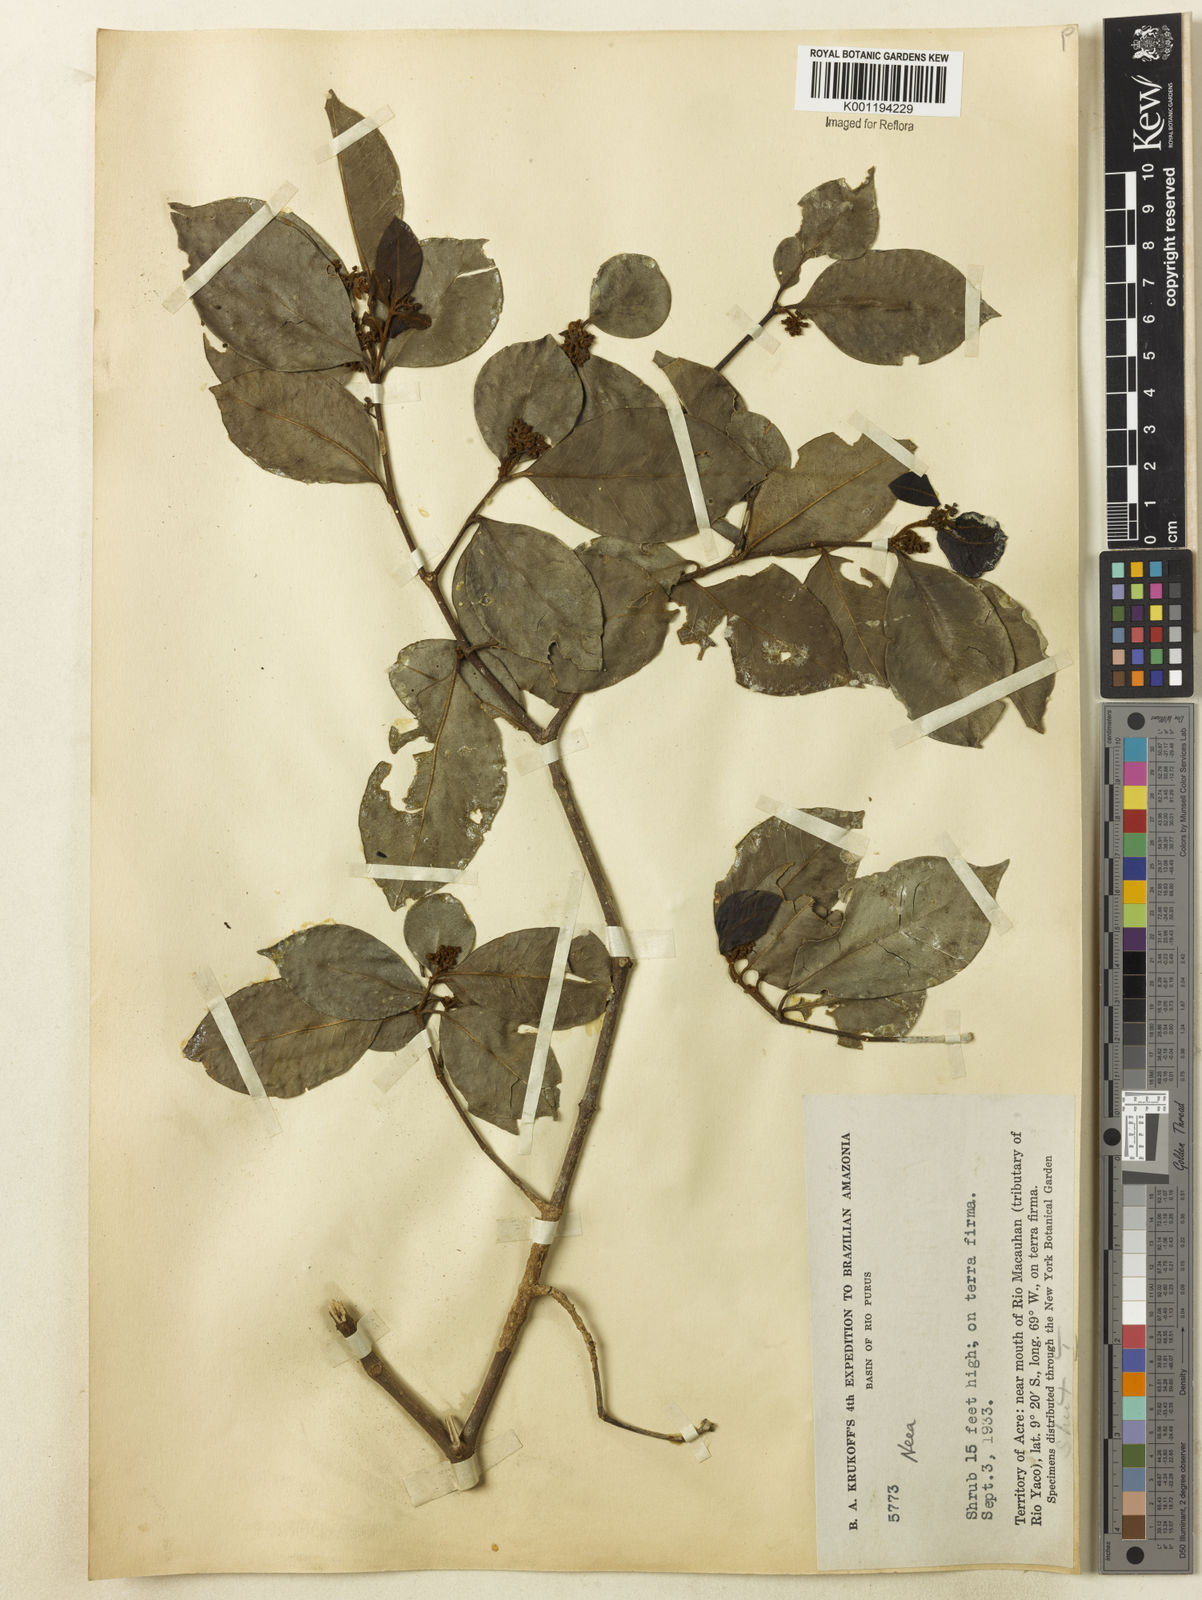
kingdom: Plantae
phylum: Tracheophyta
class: Magnoliopsida
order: Caryophyllales
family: Nyctaginaceae
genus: Neea
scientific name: Neea ovalifolia
